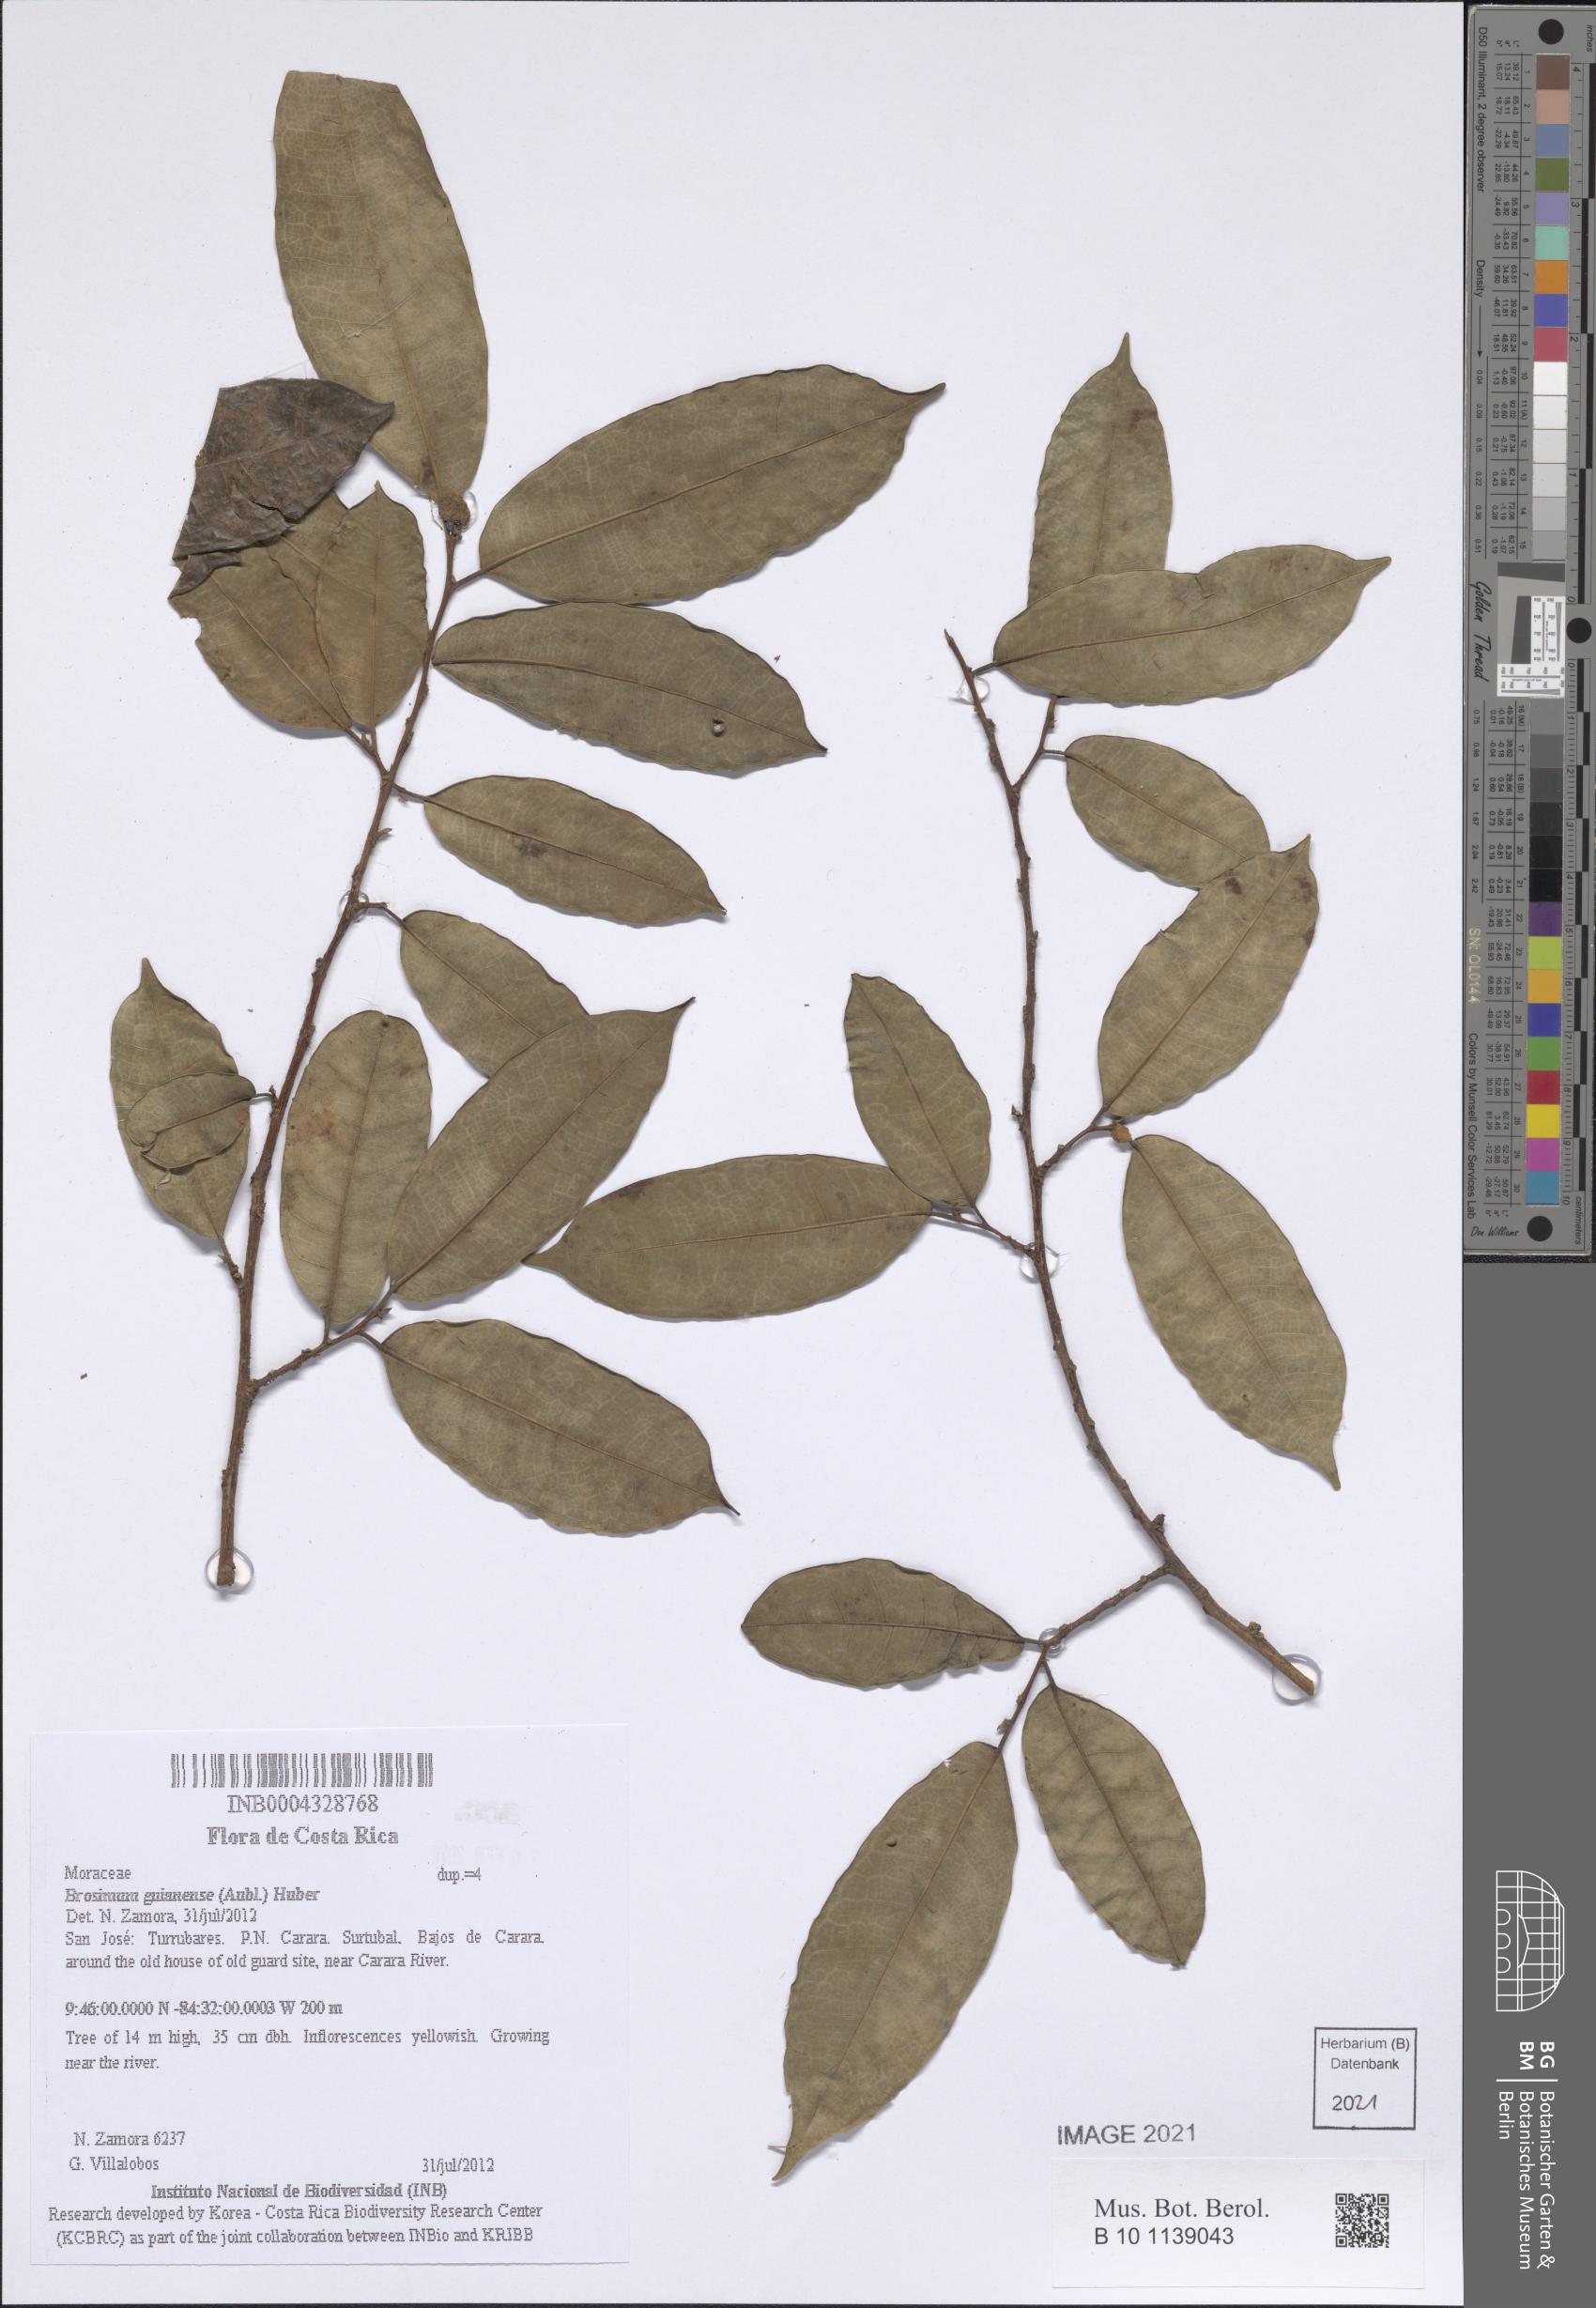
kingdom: Plantae
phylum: Tracheophyta
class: Magnoliopsida
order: Rosales
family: Moraceae
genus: Brosimum
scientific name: Brosimum guianense
